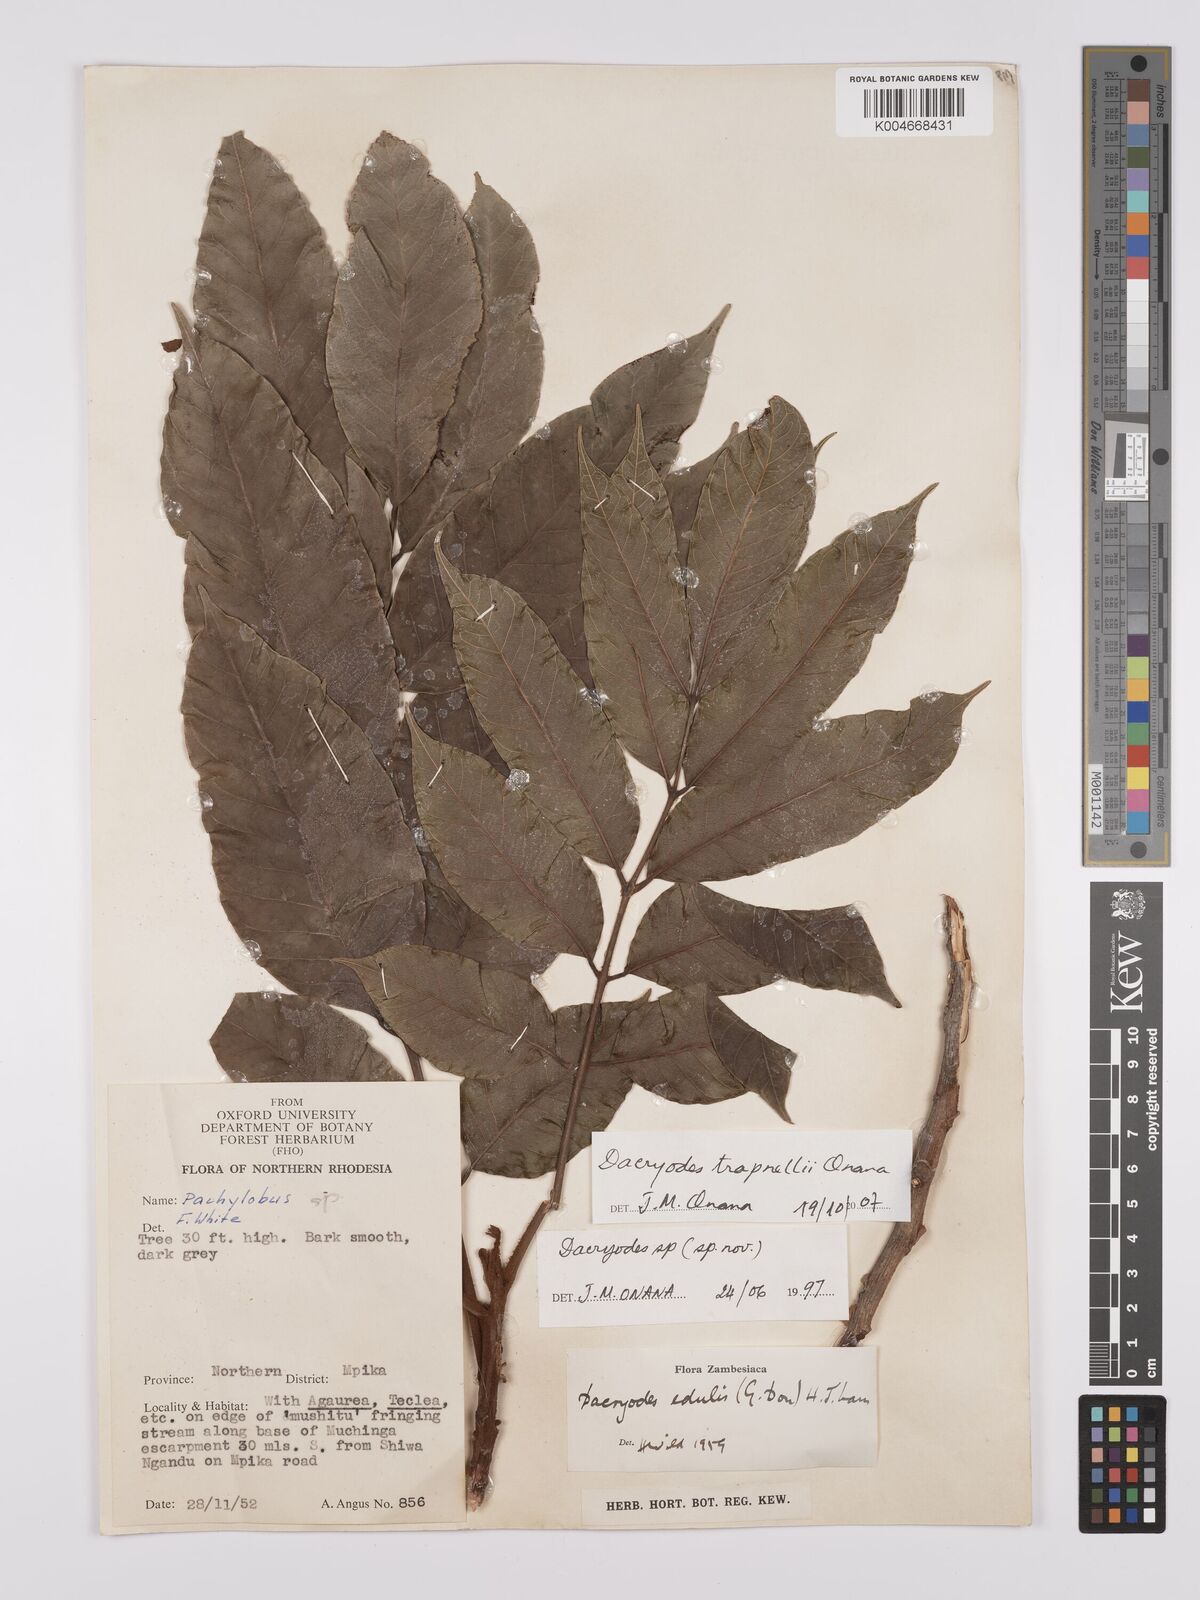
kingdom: Plantae
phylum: Tracheophyta
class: Magnoliopsida
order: Sapindales
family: Burseraceae
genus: Pachylobus
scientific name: Pachylobus trapnellii
